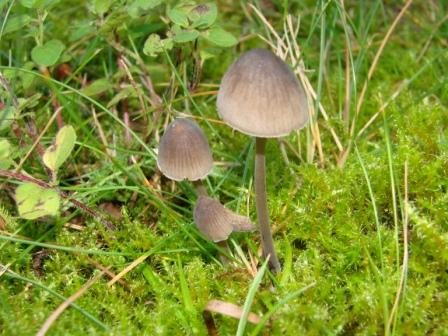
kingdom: Fungi
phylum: Basidiomycota
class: Agaricomycetes
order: Agaricales
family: Mycenaceae
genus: Mycena
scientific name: Mycena leptocephala
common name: klor-huesvamp
